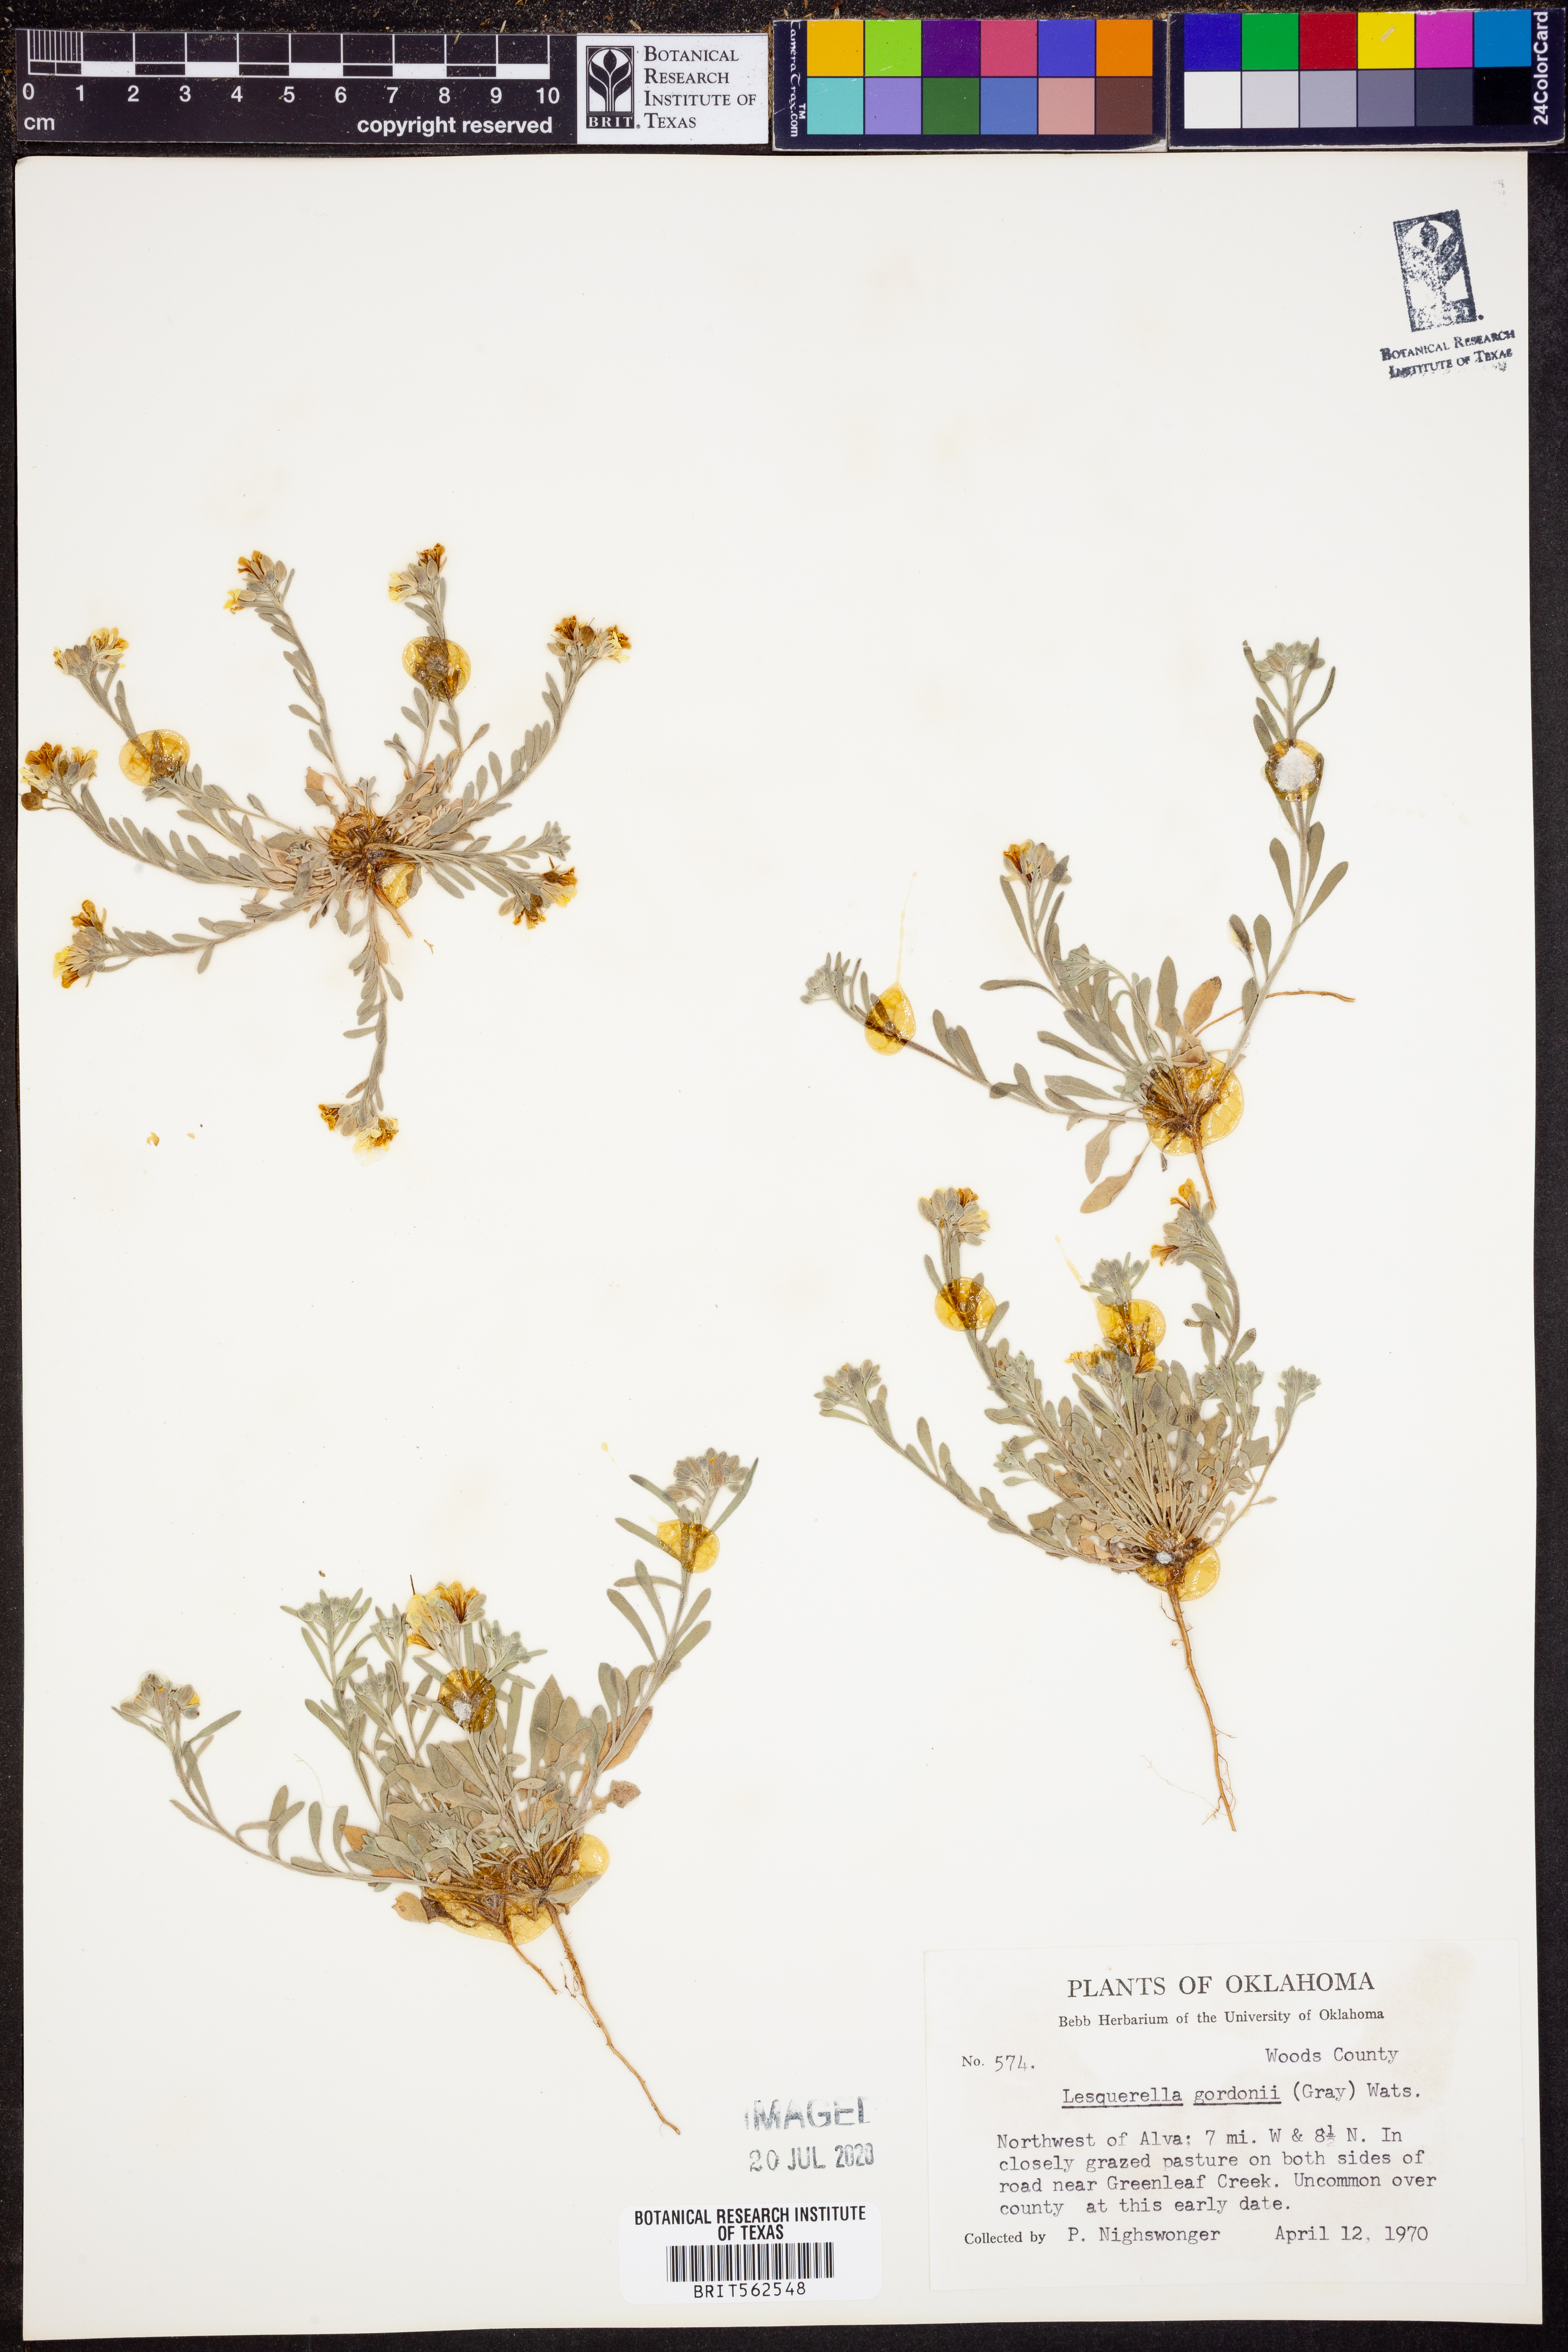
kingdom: Plantae
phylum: Tracheophyta
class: Magnoliopsida
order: Brassicales
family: Brassicaceae
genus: Physaria
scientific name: Physaria gordonii
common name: Gordon's bladderpod
